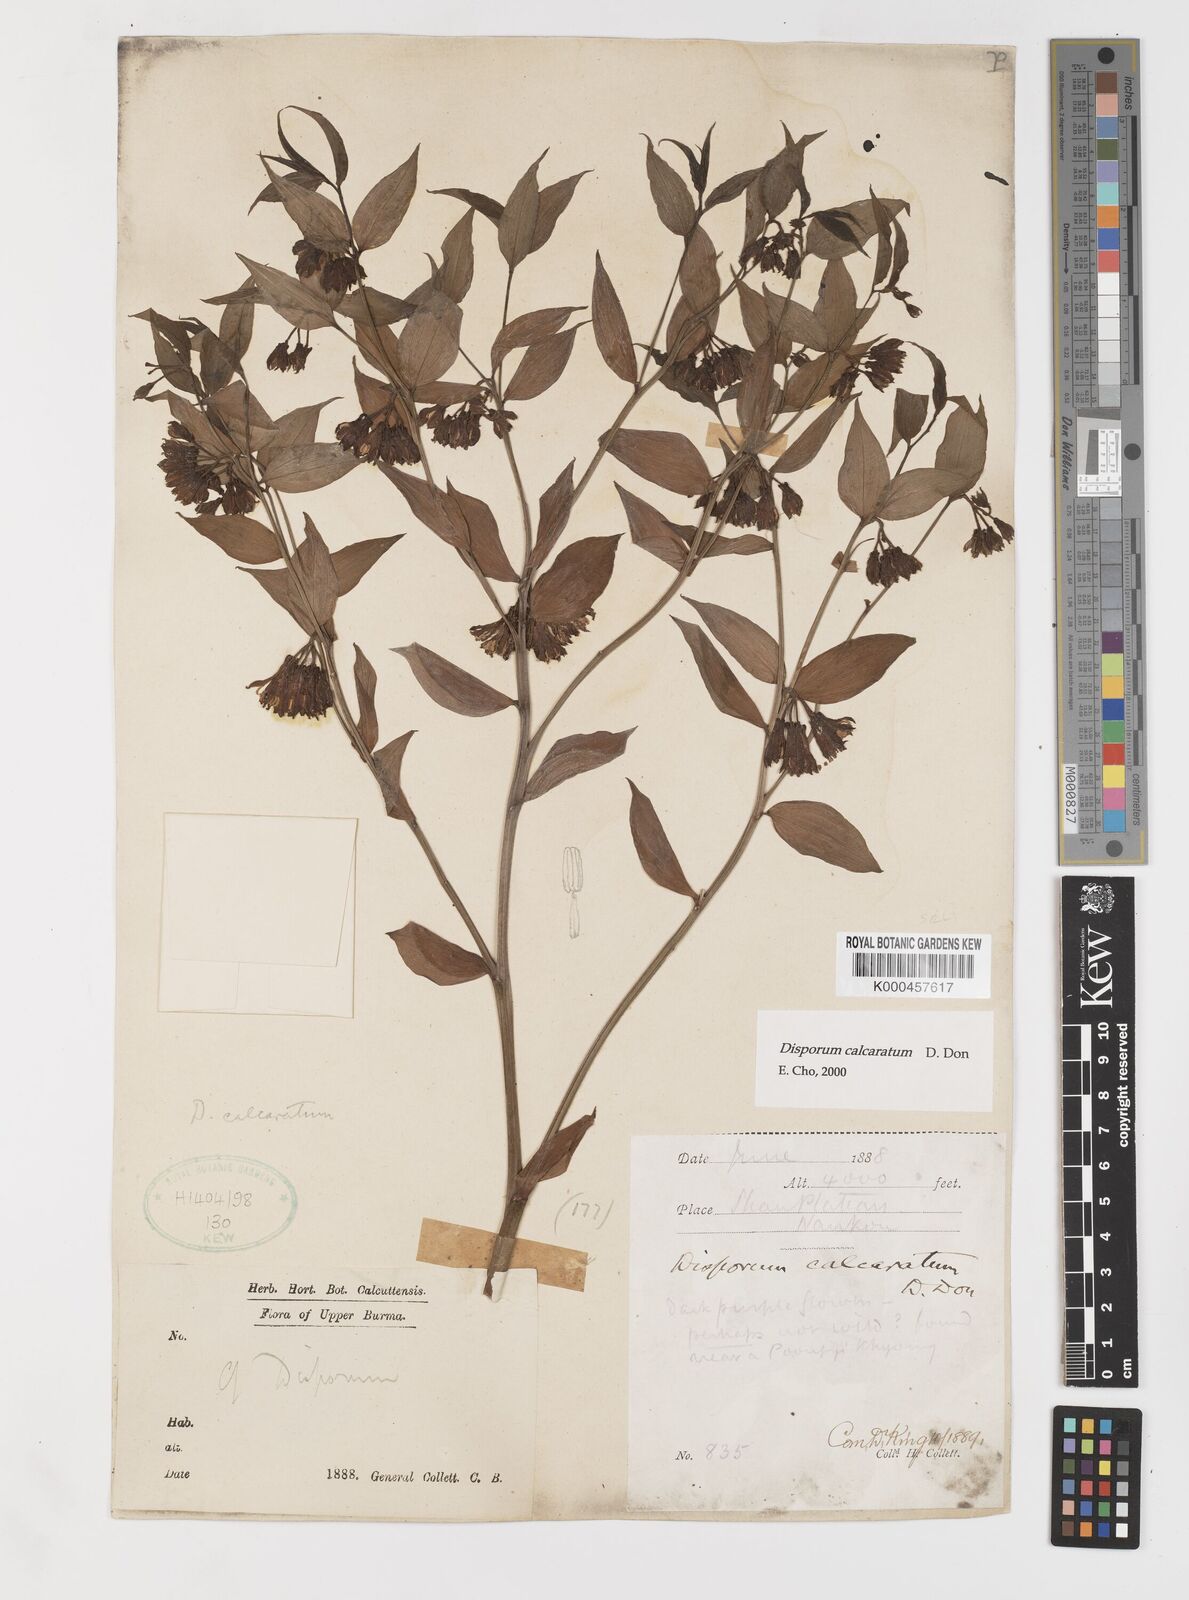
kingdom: Plantae
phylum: Tracheophyta
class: Liliopsida
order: Liliales
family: Colchicaceae
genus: Disporum
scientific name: Disporum calcaratum
